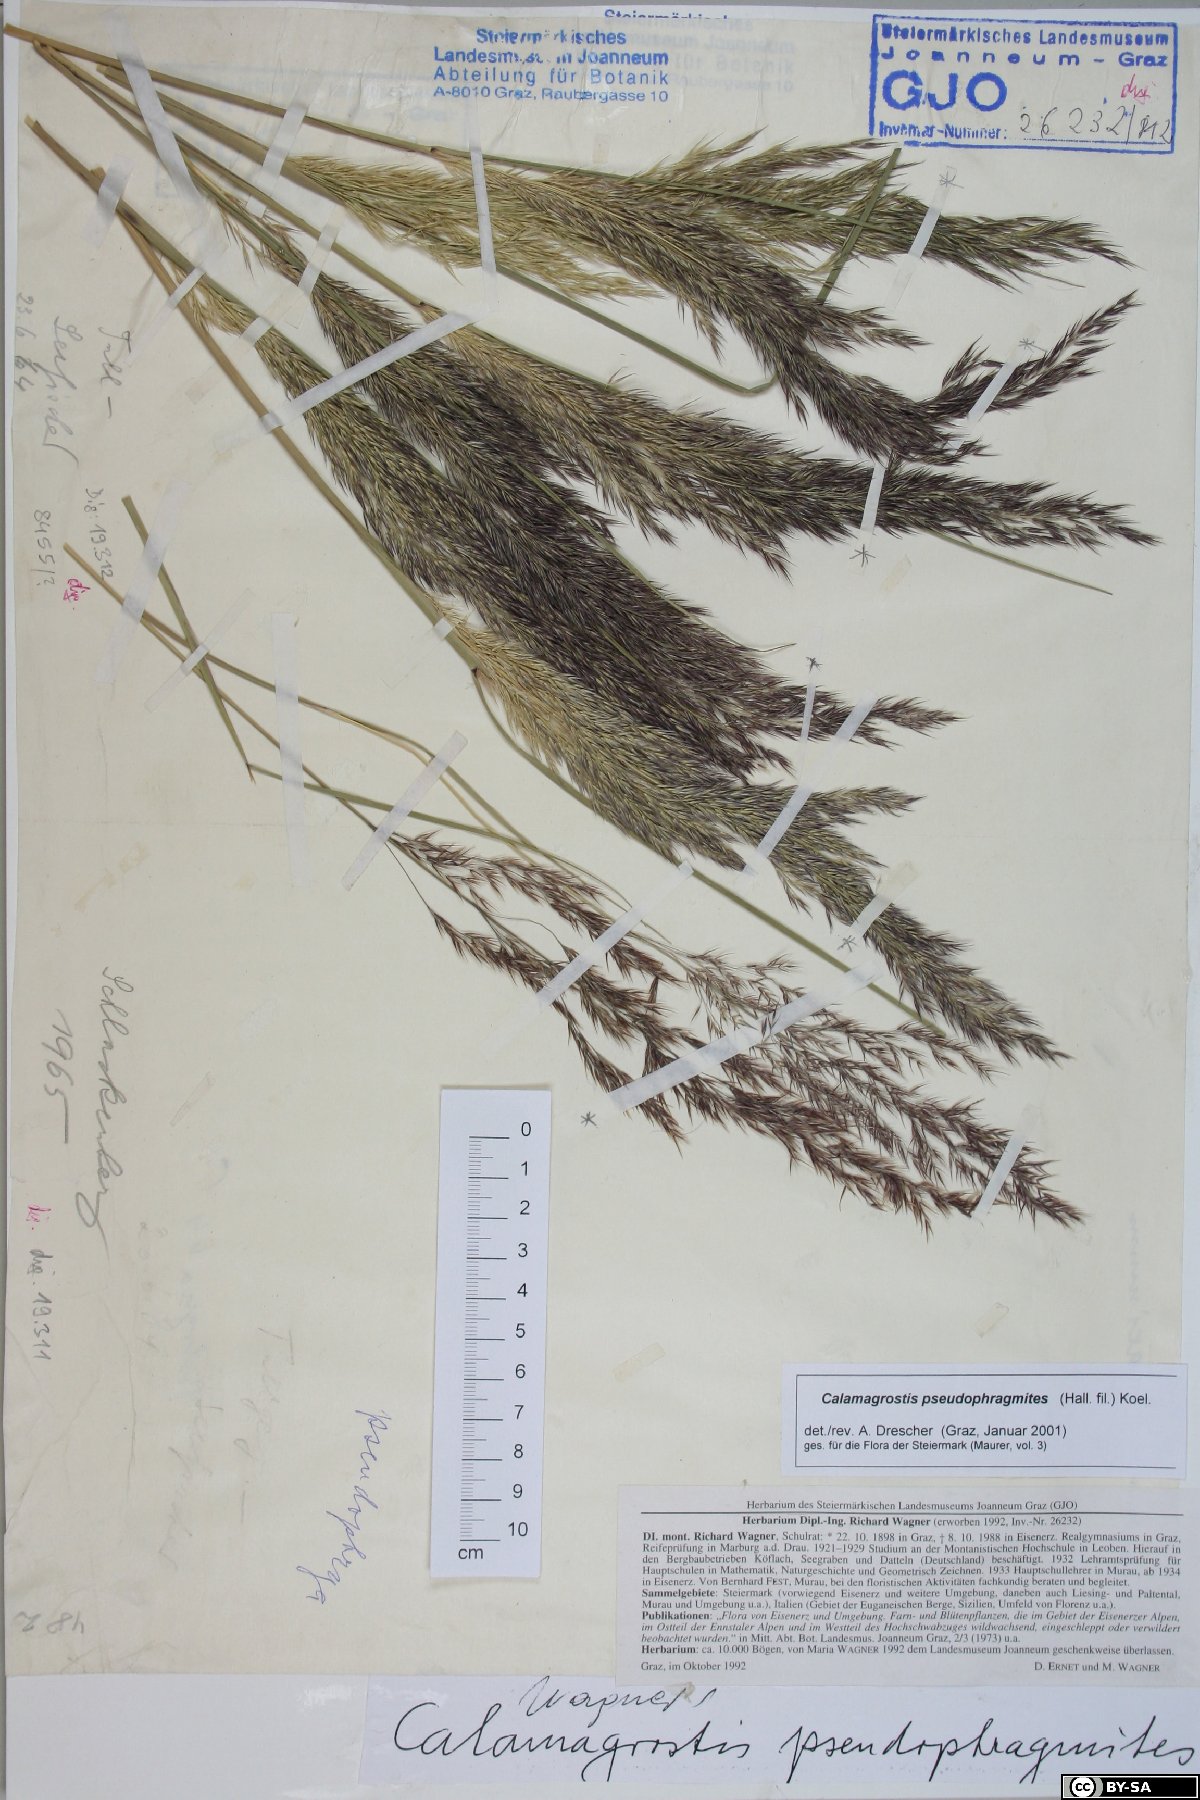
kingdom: Plantae
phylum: Tracheophyta
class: Liliopsida
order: Poales
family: Poaceae
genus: Calamagrostis
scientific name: Calamagrostis pseudophragmites
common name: Coastal small-reed
